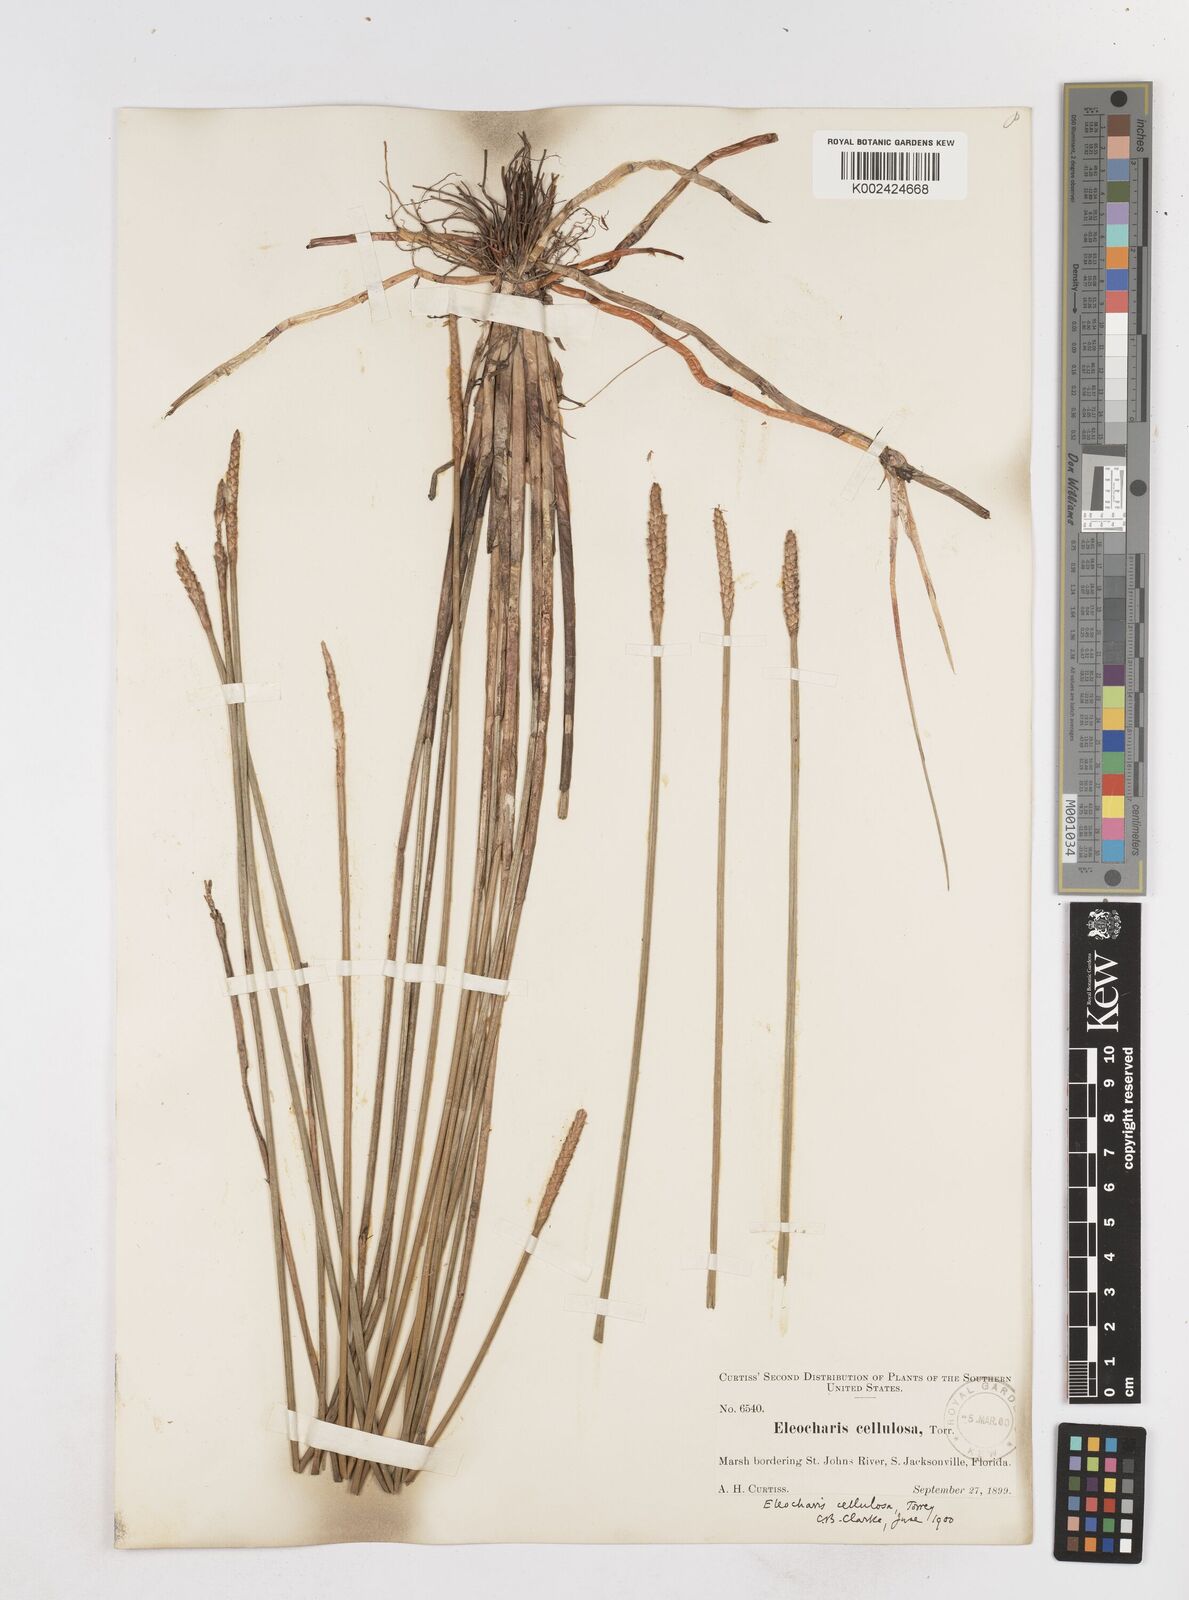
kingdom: Plantae
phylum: Tracheophyta
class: Liliopsida
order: Poales
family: Cyperaceae
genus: Eleocharis
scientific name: Eleocharis cellulosa
